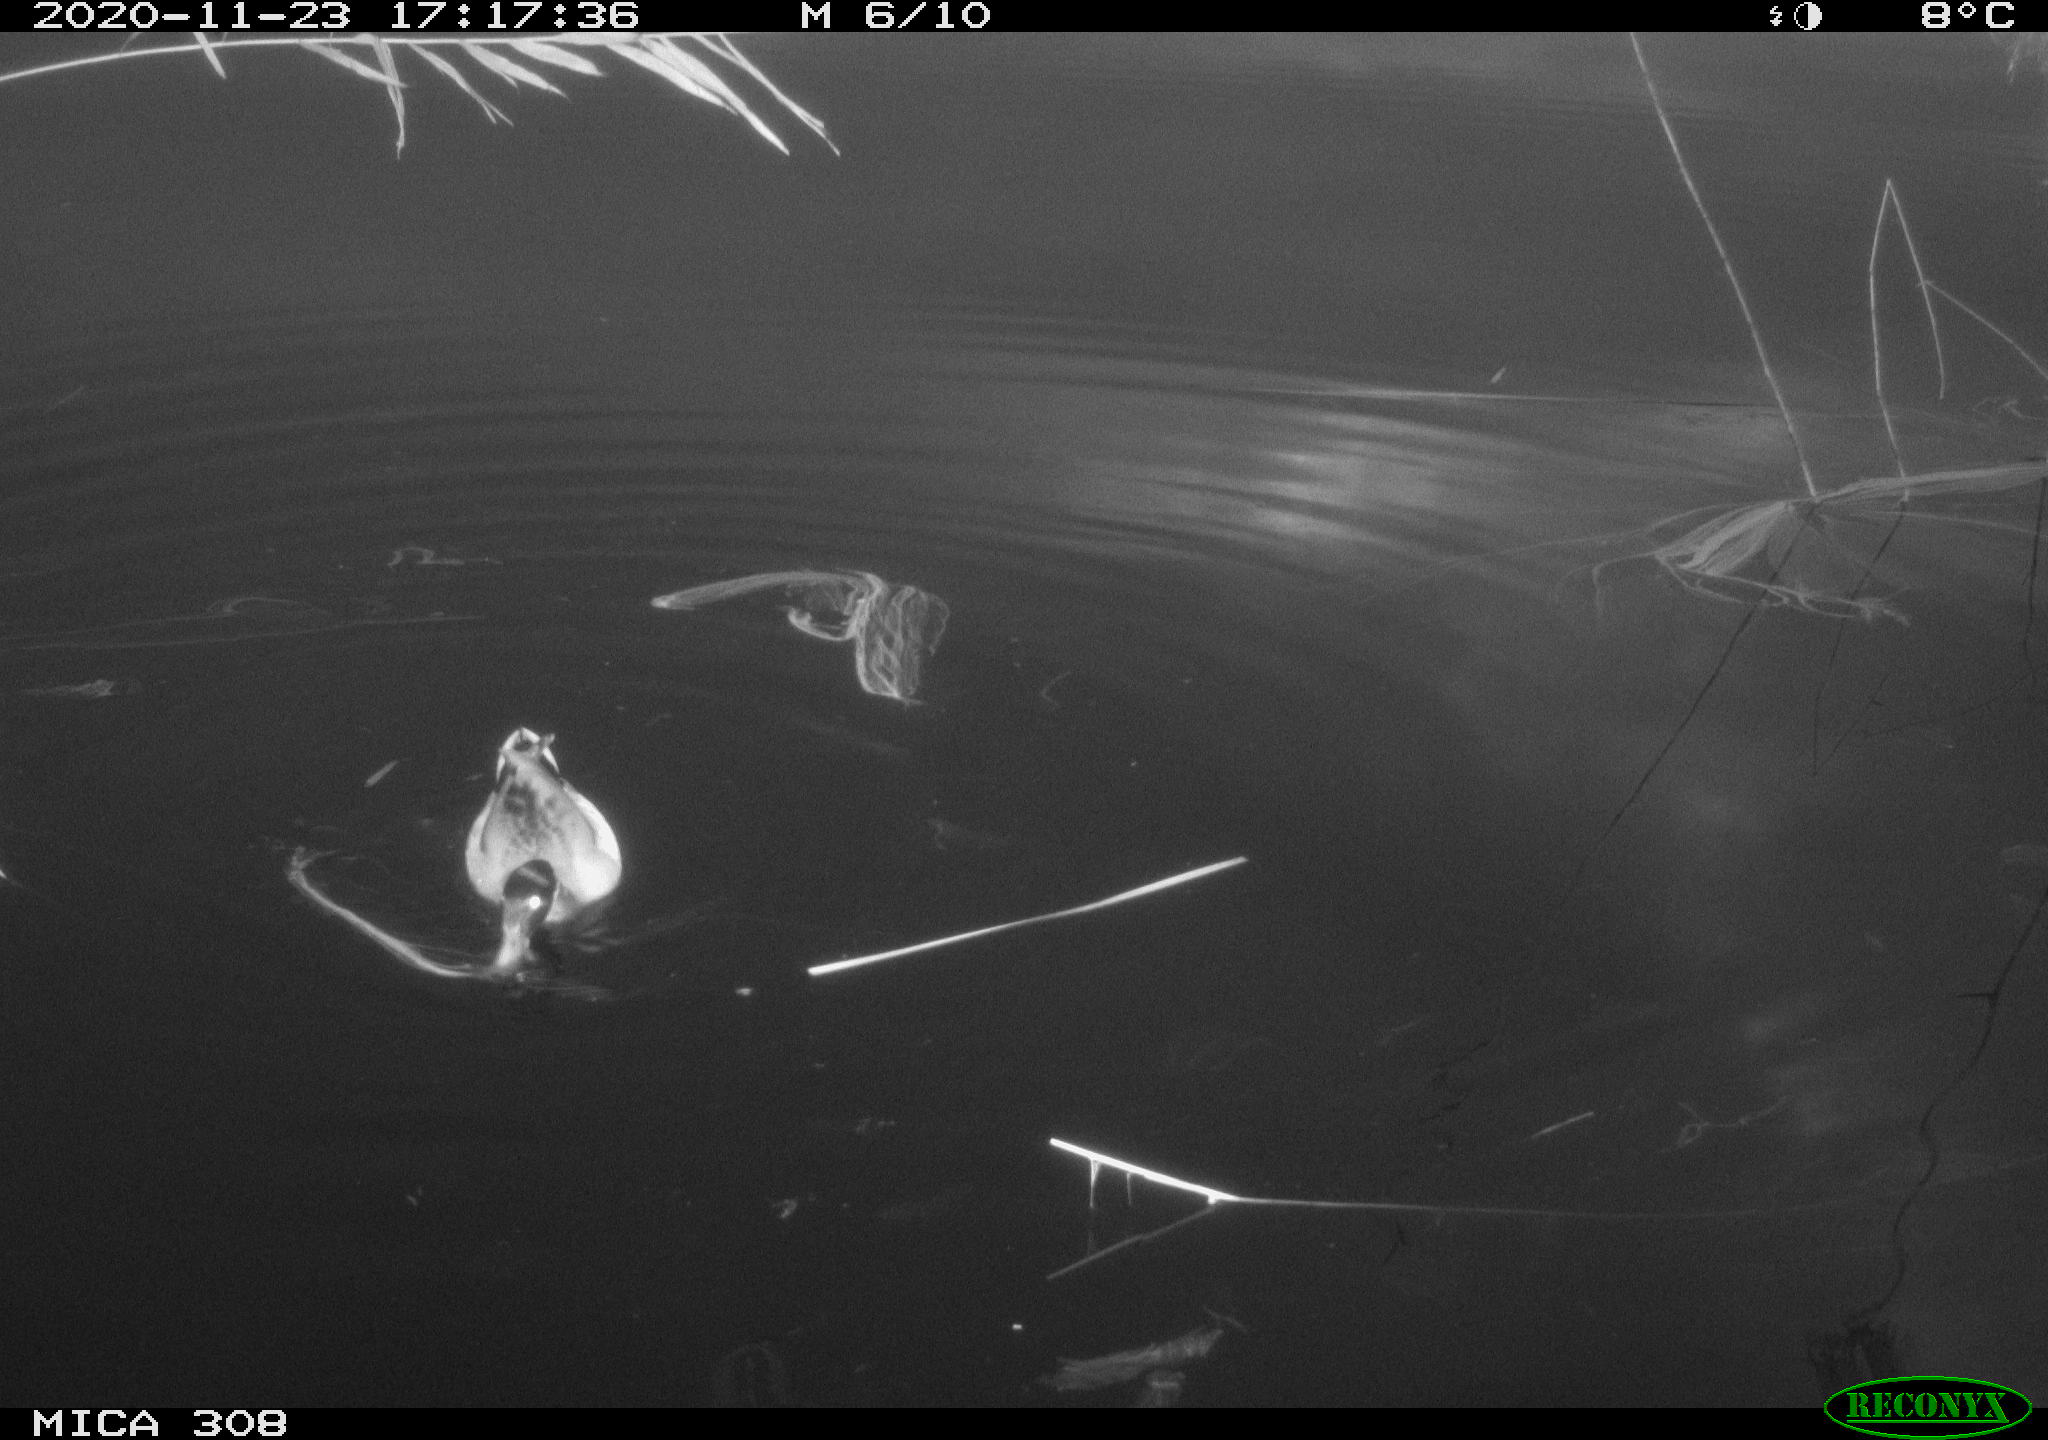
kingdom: Animalia
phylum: Chordata
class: Aves
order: Anseriformes
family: Anatidae
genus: Anas
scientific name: Anas platyrhynchos
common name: Mallard
